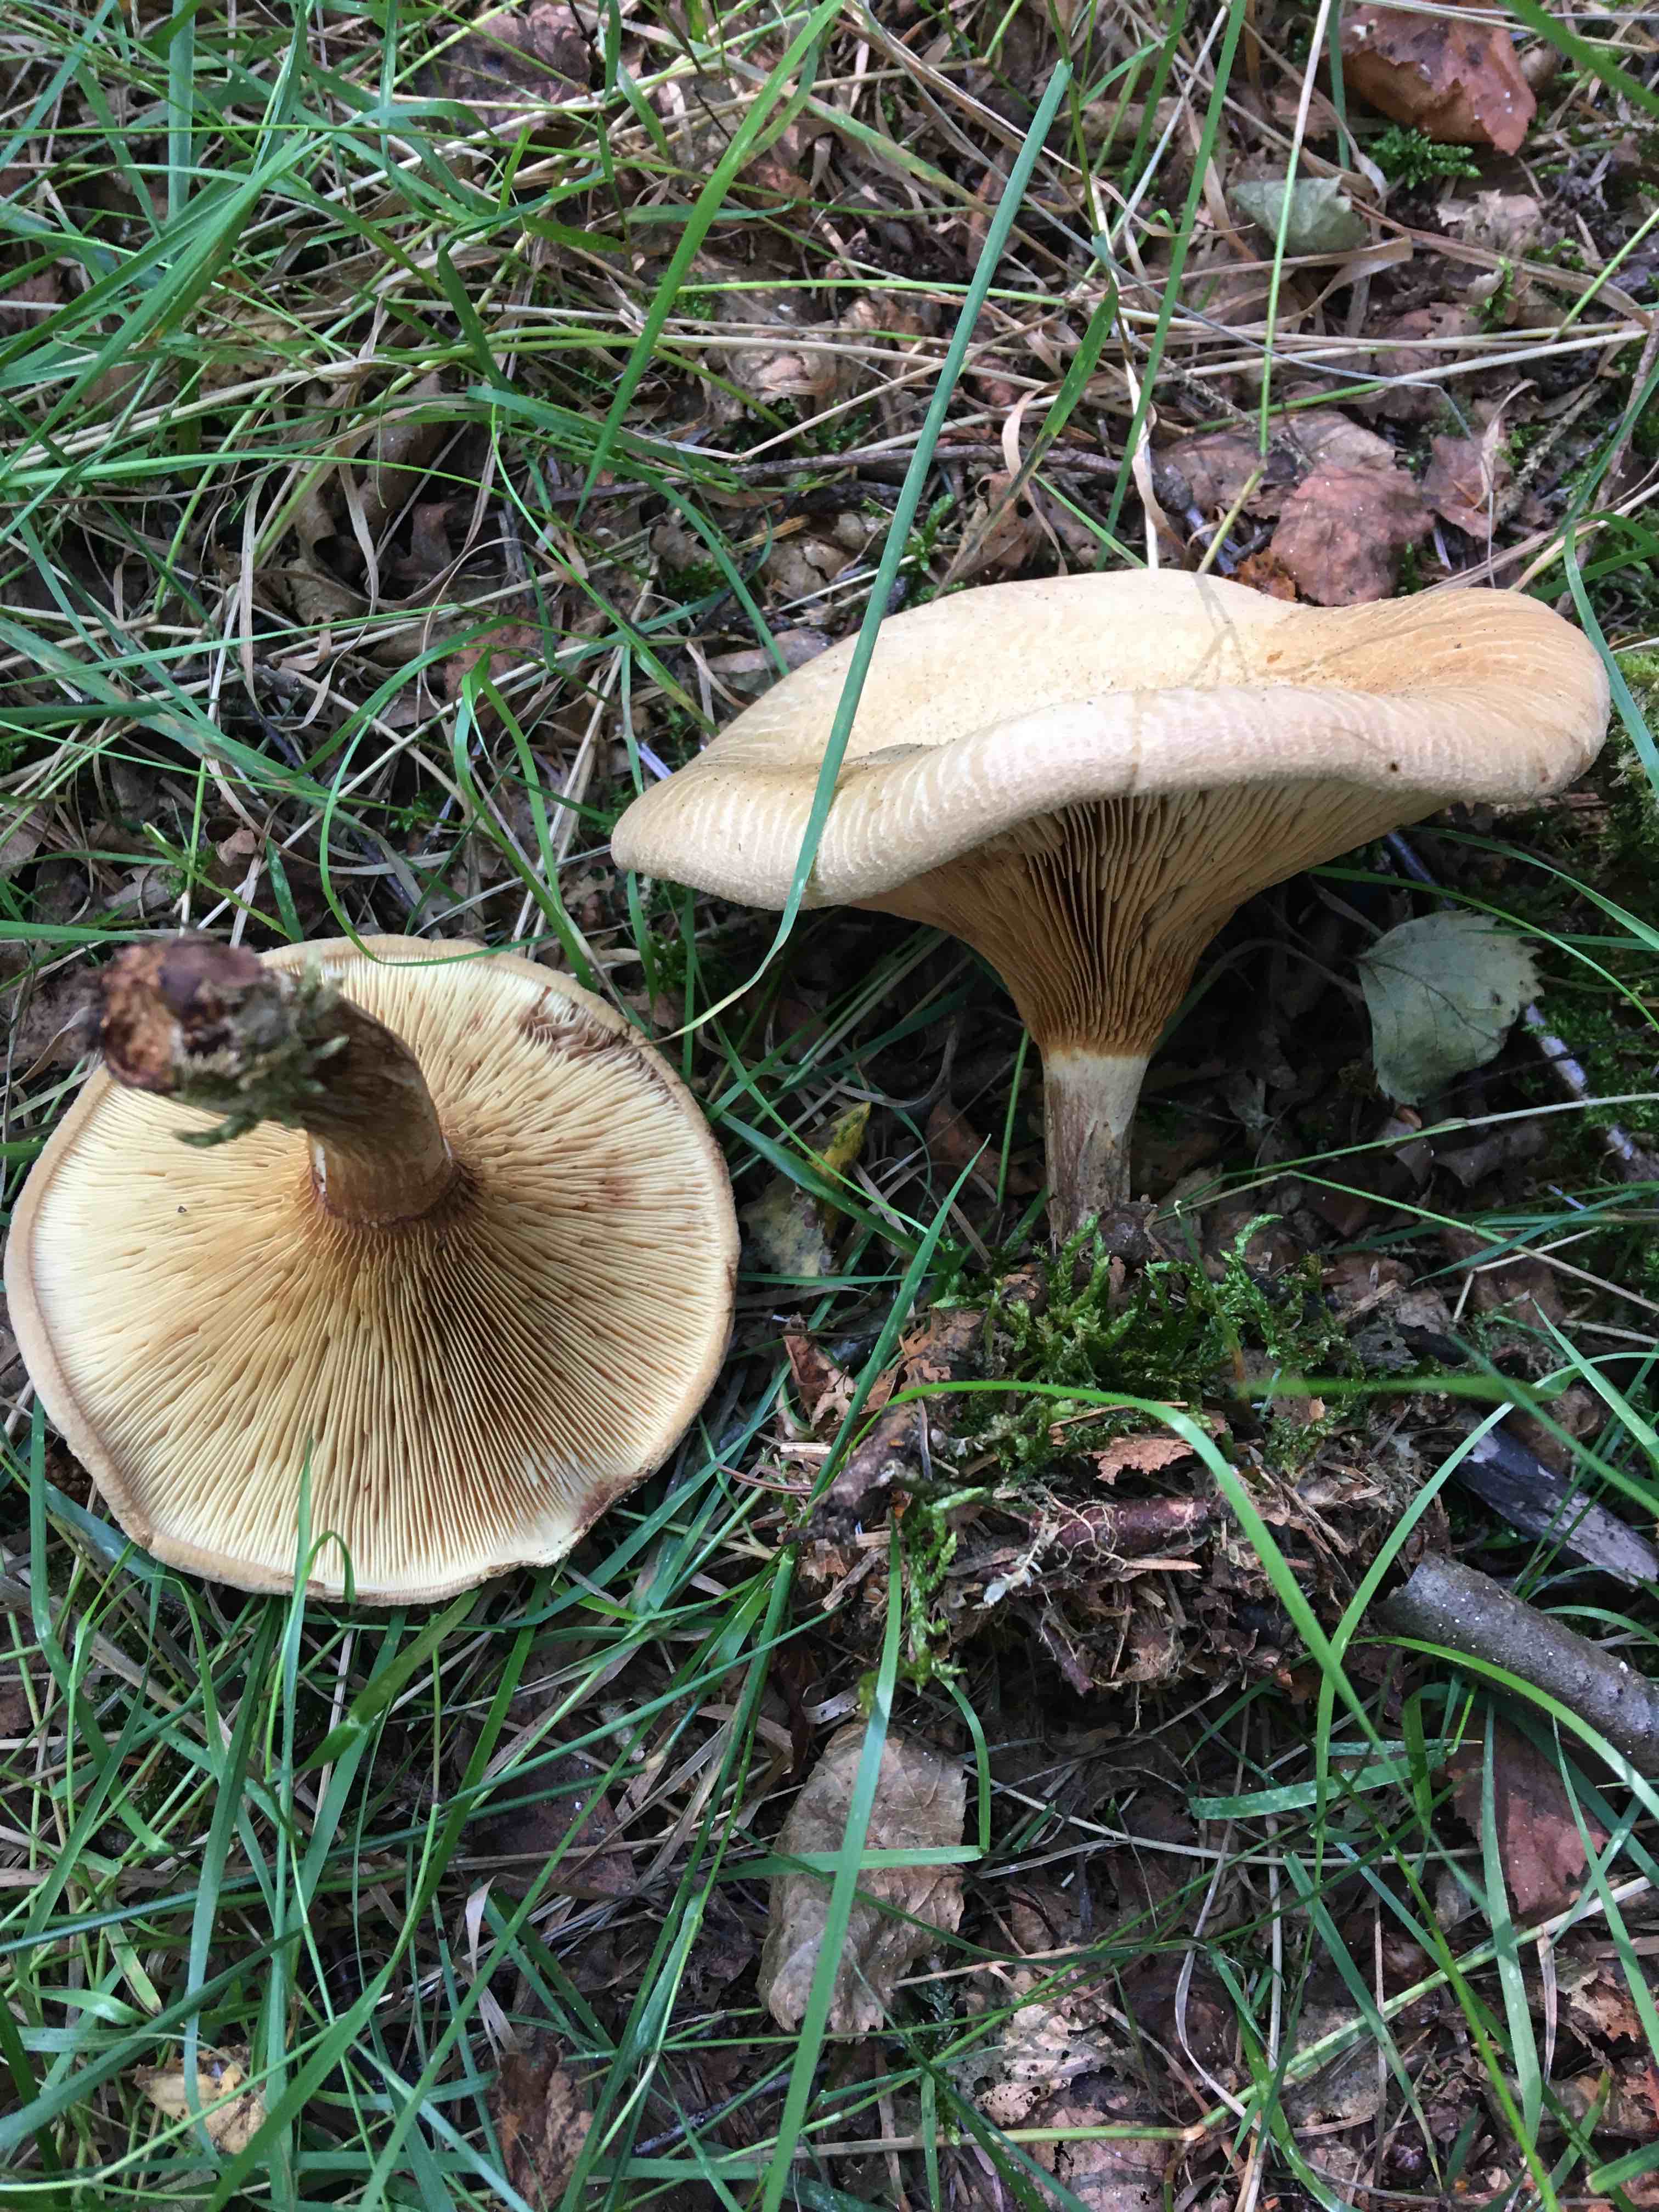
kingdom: Fungi
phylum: Basidiomycota
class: Agaricomycetes
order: Boletales
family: Paxillaceae
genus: Paxillus
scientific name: Paxillus involutus
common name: almindelig netbladhat
